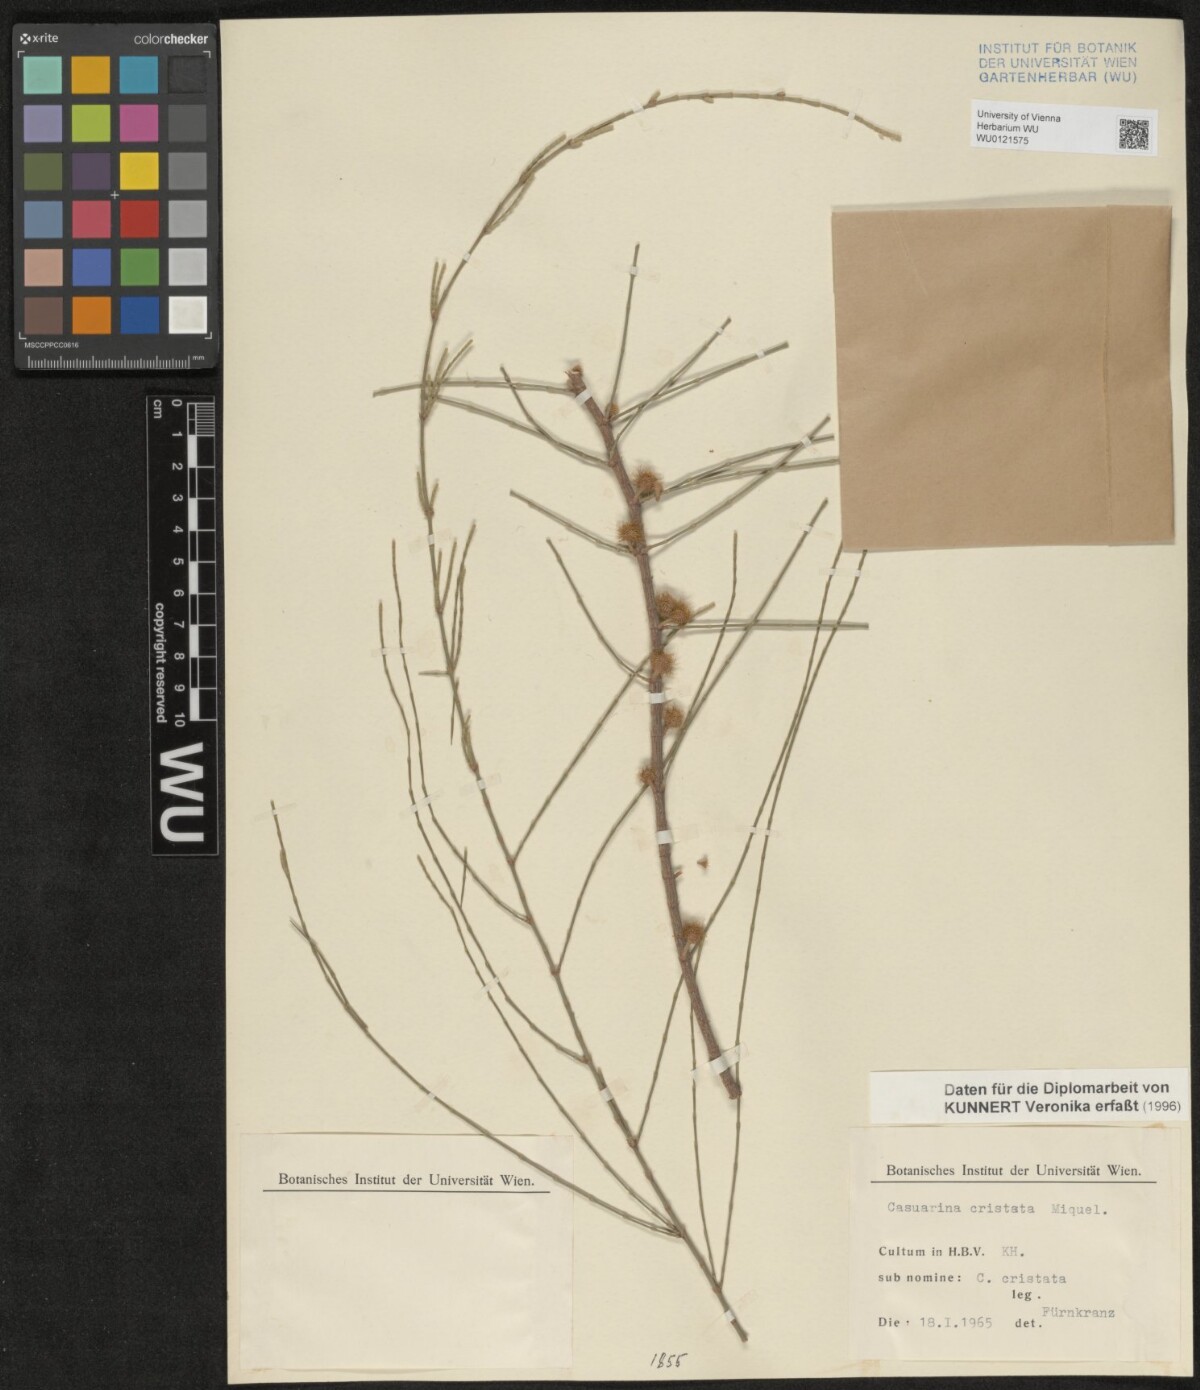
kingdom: Plantae
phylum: Tracheophyta
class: Magnoliopsida
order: Fagales
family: Casuarinaceae
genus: Casuarina
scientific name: Casuarina cristata
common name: Black-oak
